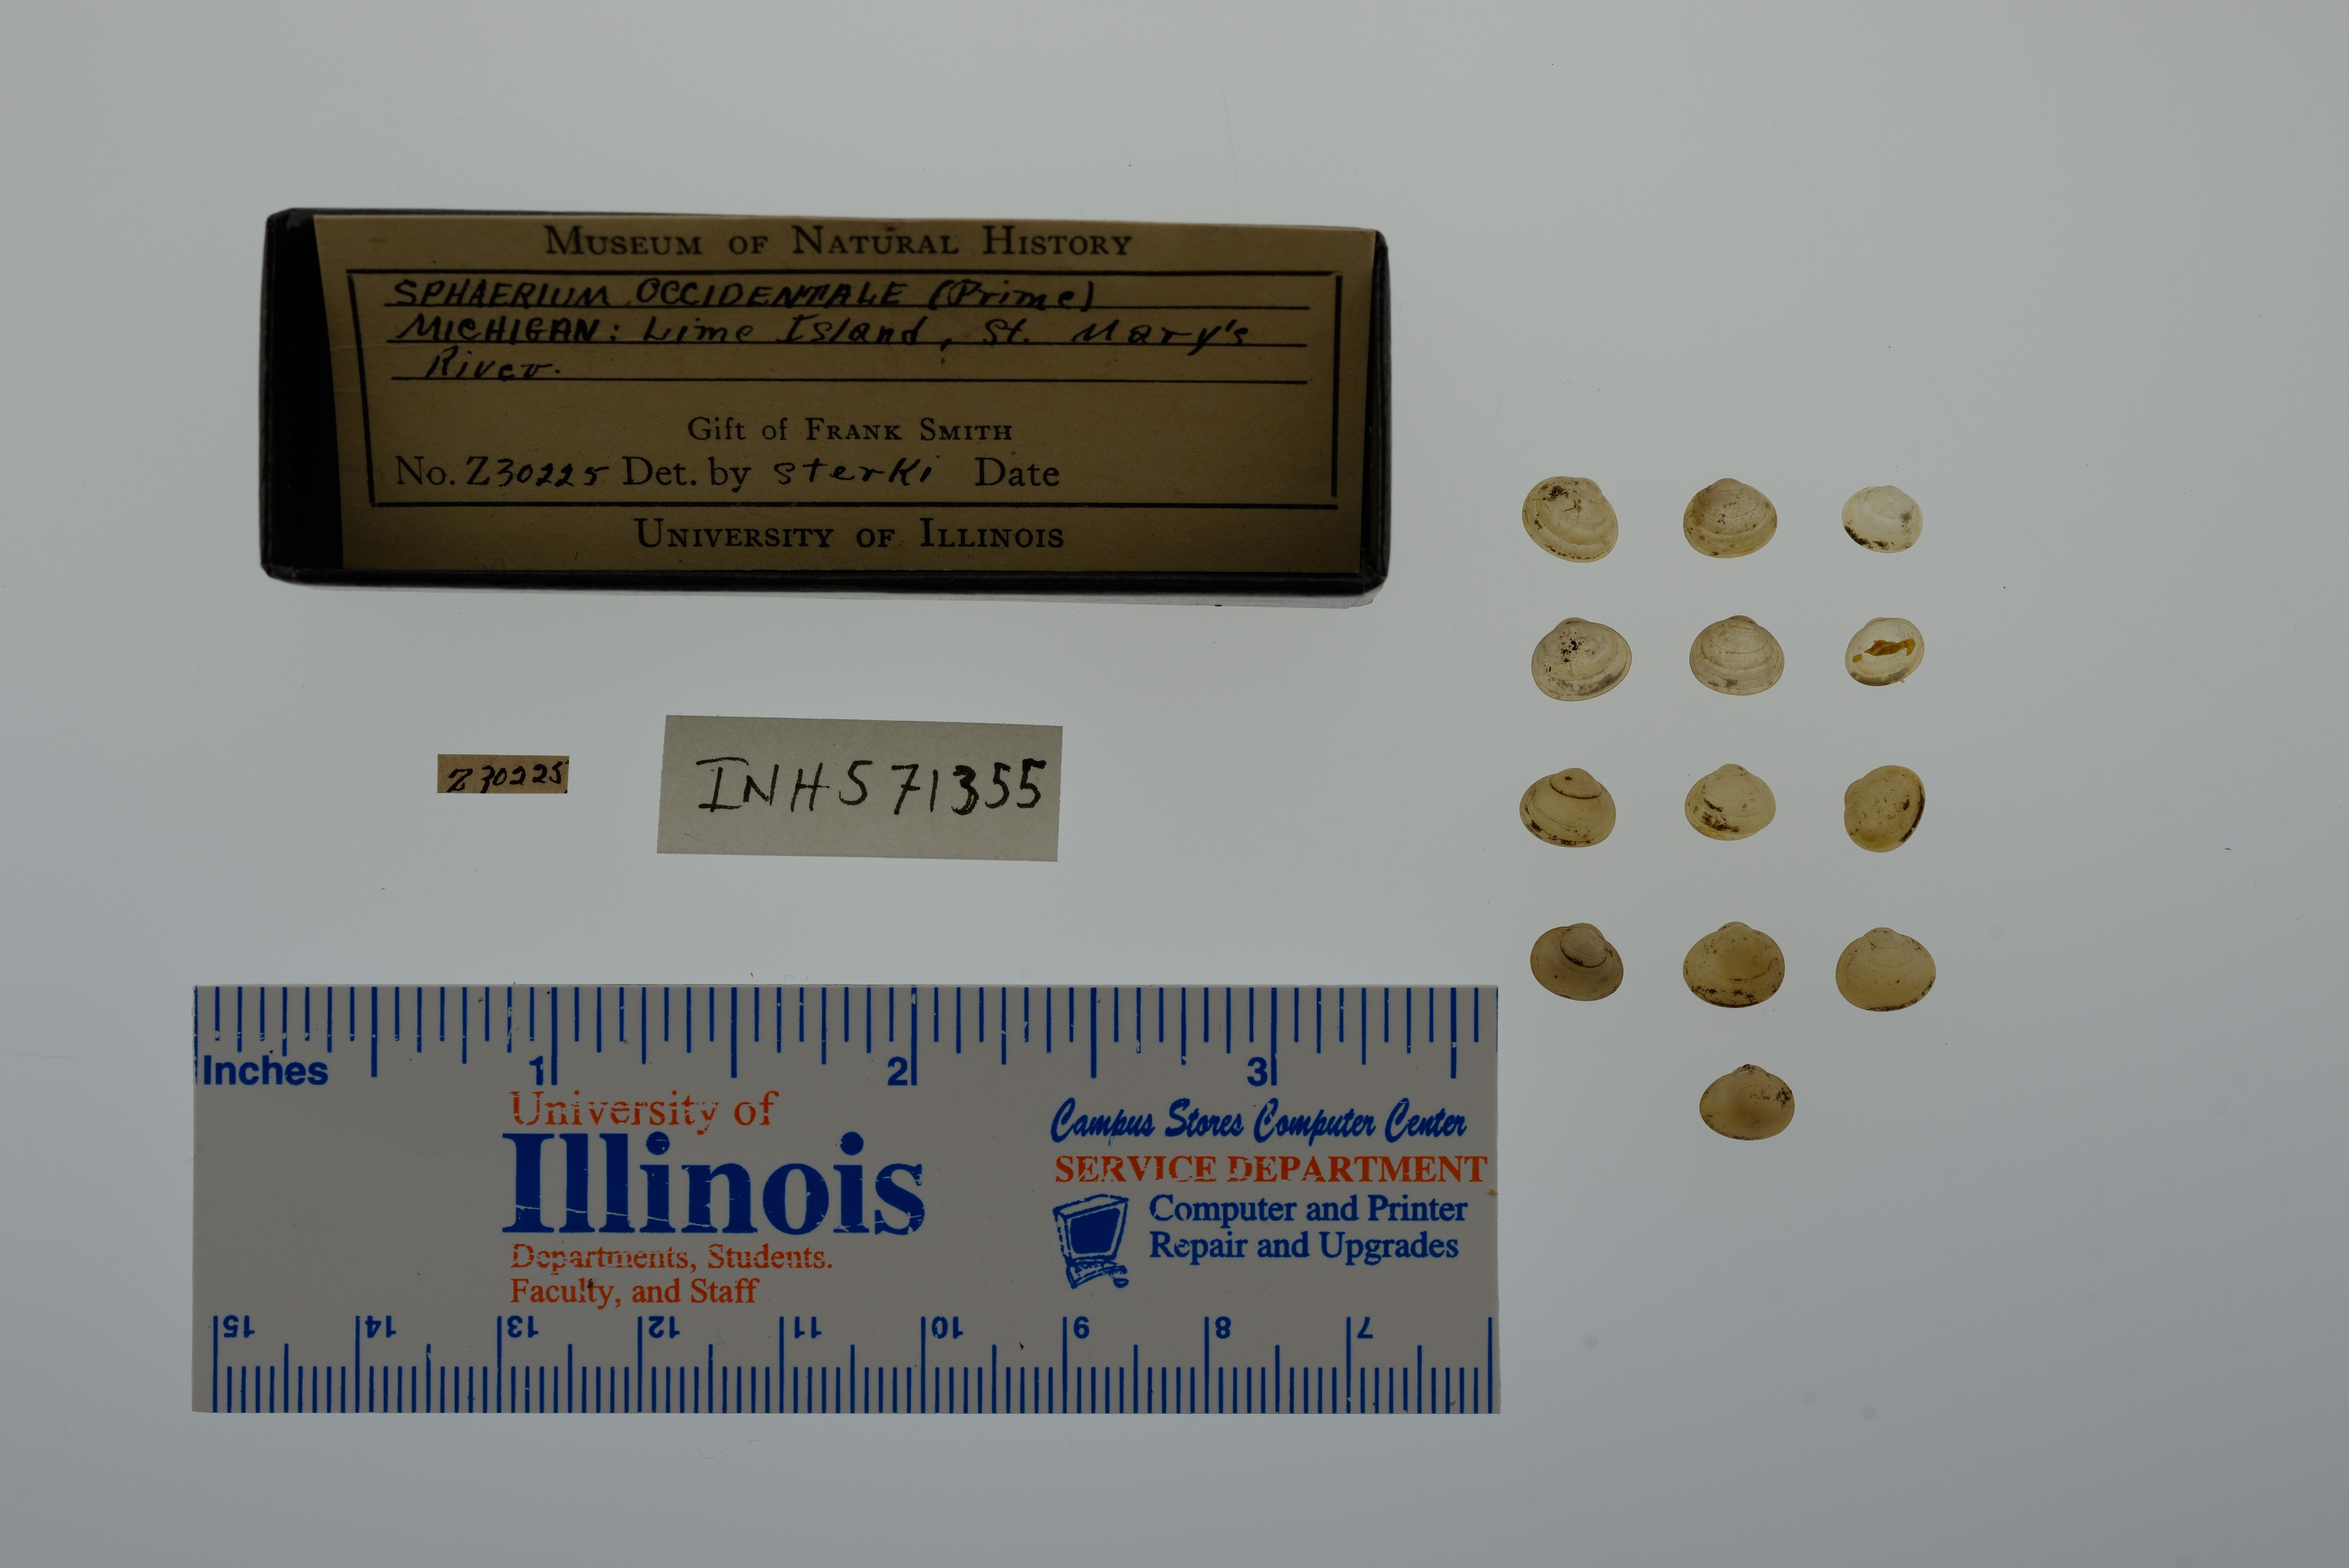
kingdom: Animalia
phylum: Mollusca
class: Bivalvia
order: Sphaeriida
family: Sphaeriidae
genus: Sphaerium
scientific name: Sphaerium occidentale
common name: Herrington fingernailclam
